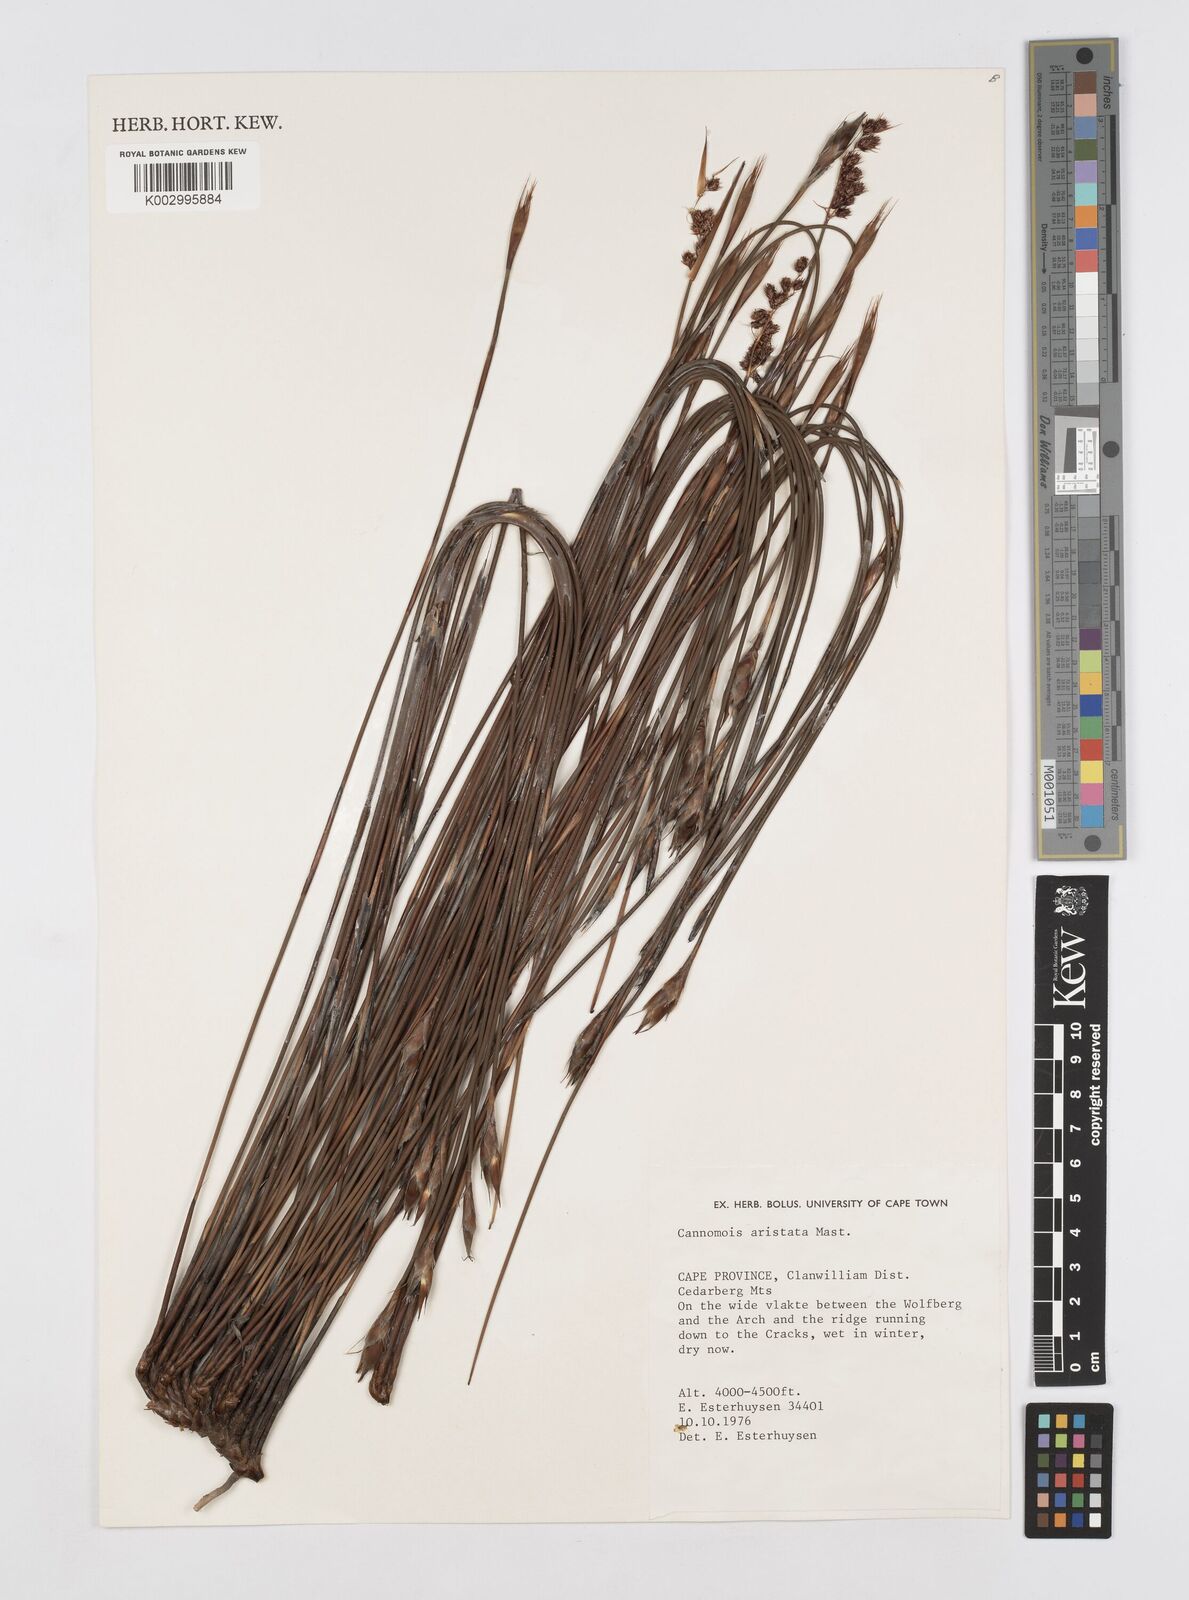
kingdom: Plantae
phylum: Tracheophyta
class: Liliopsida
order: Poales
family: Restionaceae
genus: Cannomois
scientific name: Cannomois aristata
